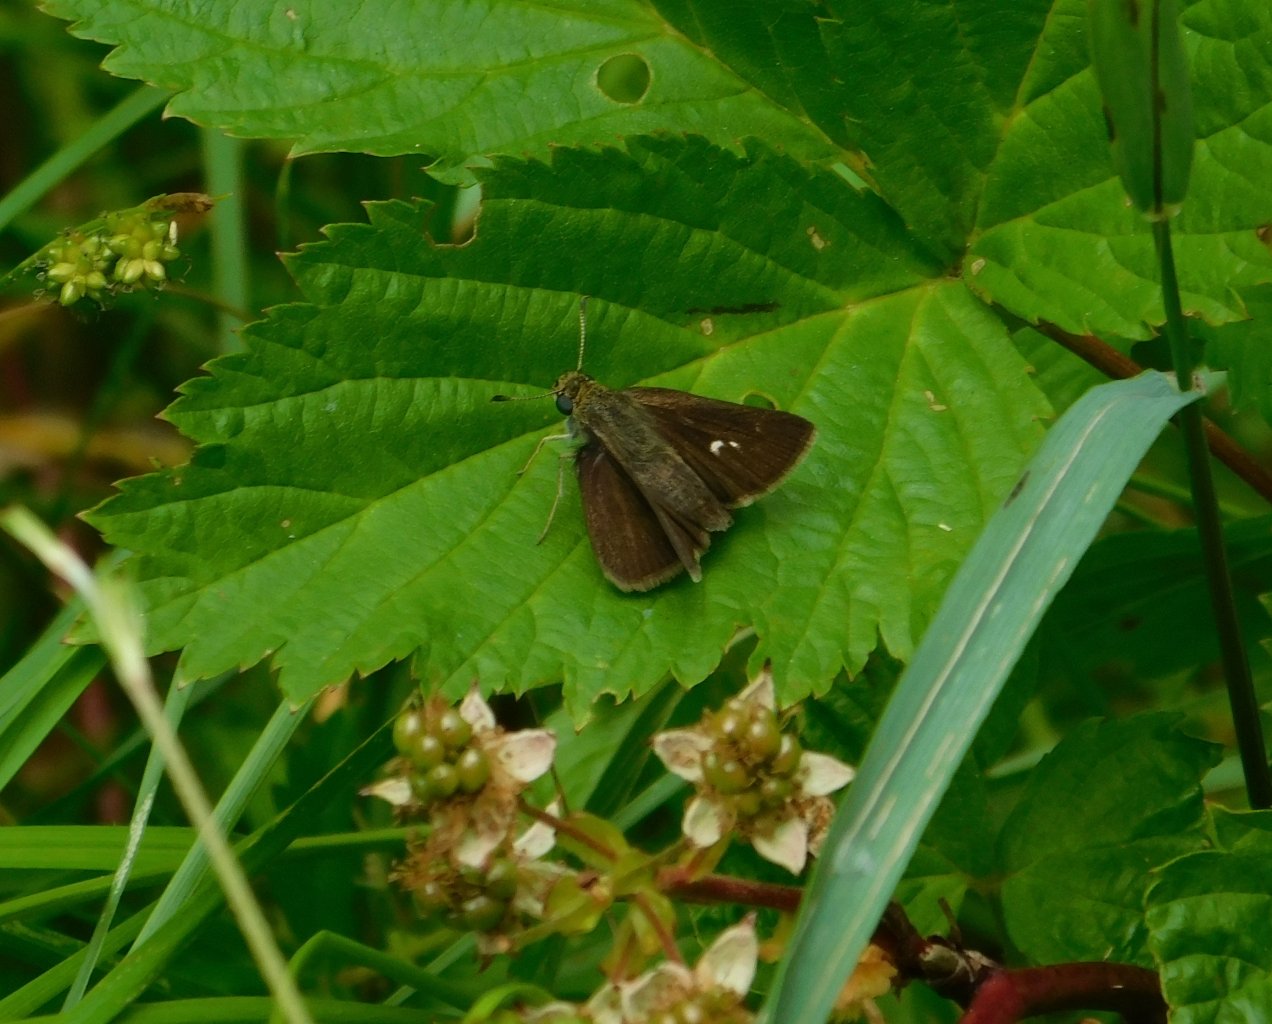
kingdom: Animalia
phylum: Arthropoda
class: Insecta
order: Lepidoptera
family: Hesperiidae
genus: Euphyes
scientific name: Euphyes bimacula
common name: Two-spotted Skipper
